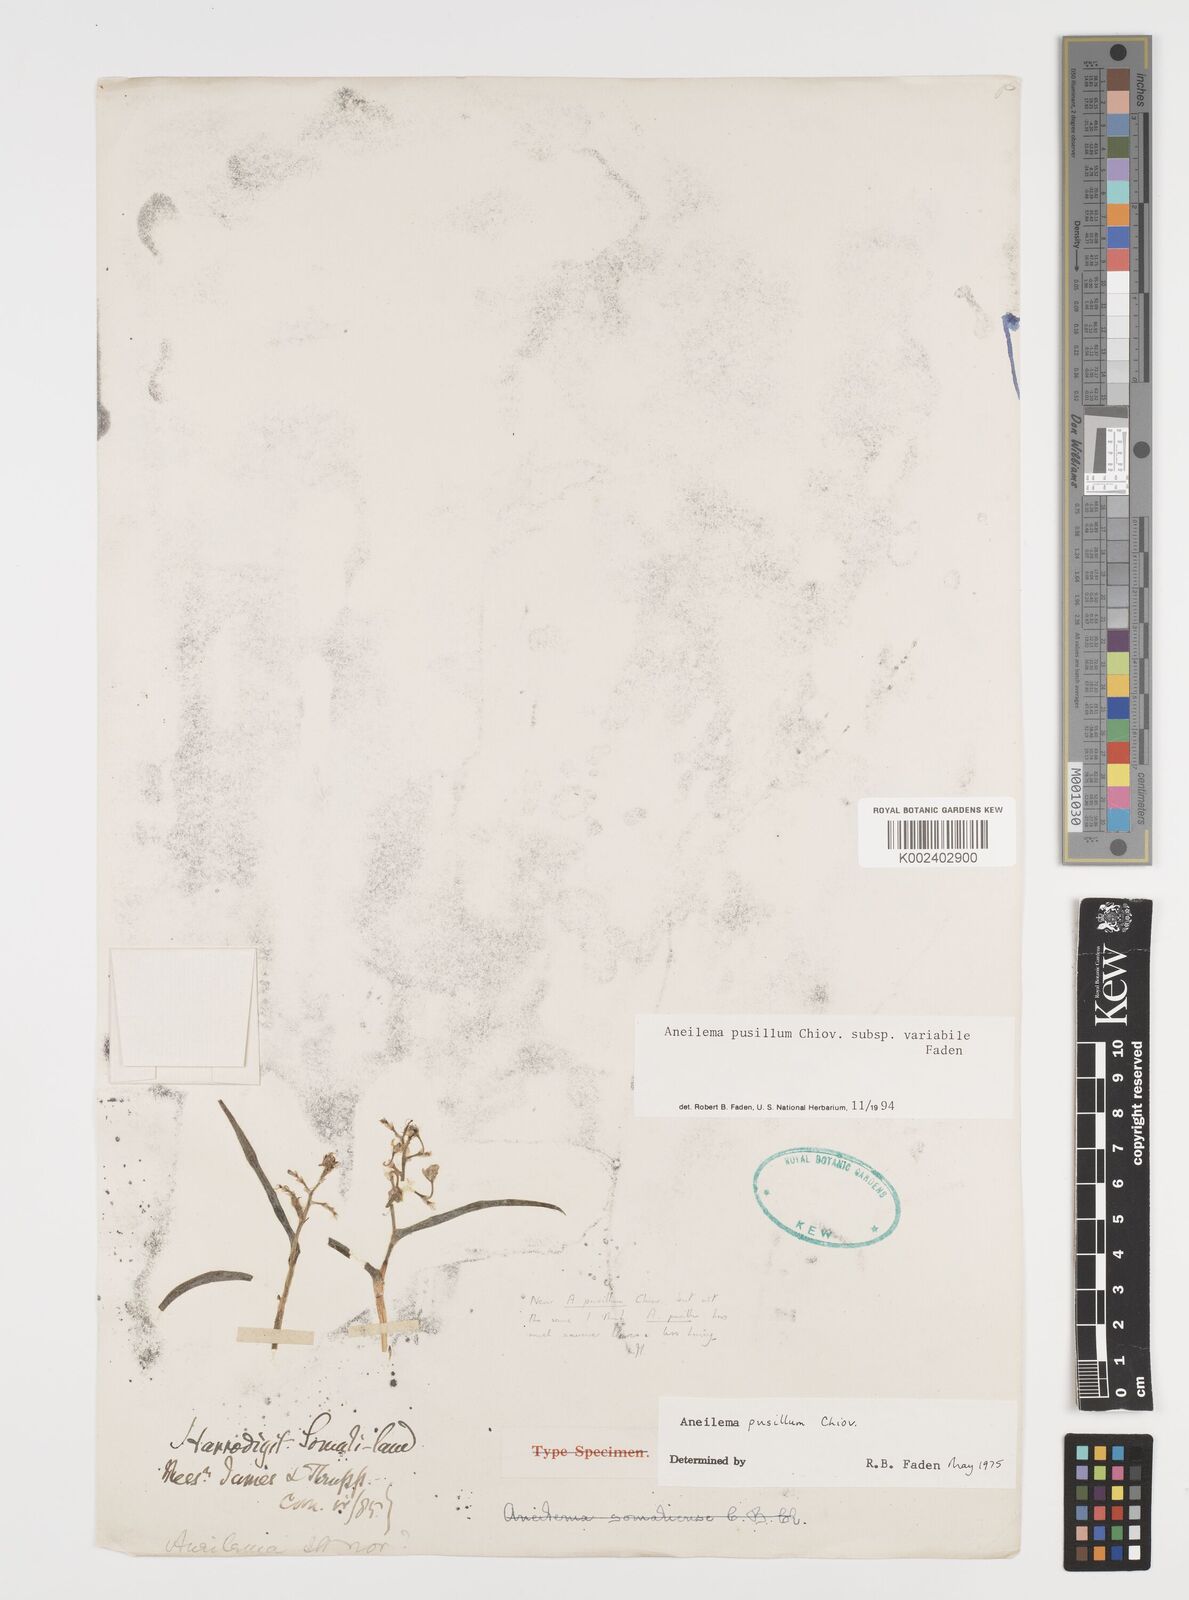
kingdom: Plantae
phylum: Tracheophyta
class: Liliopsida
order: Commelinales
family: Commelinaceae
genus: Aneilema
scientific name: Aneilema pusillum
